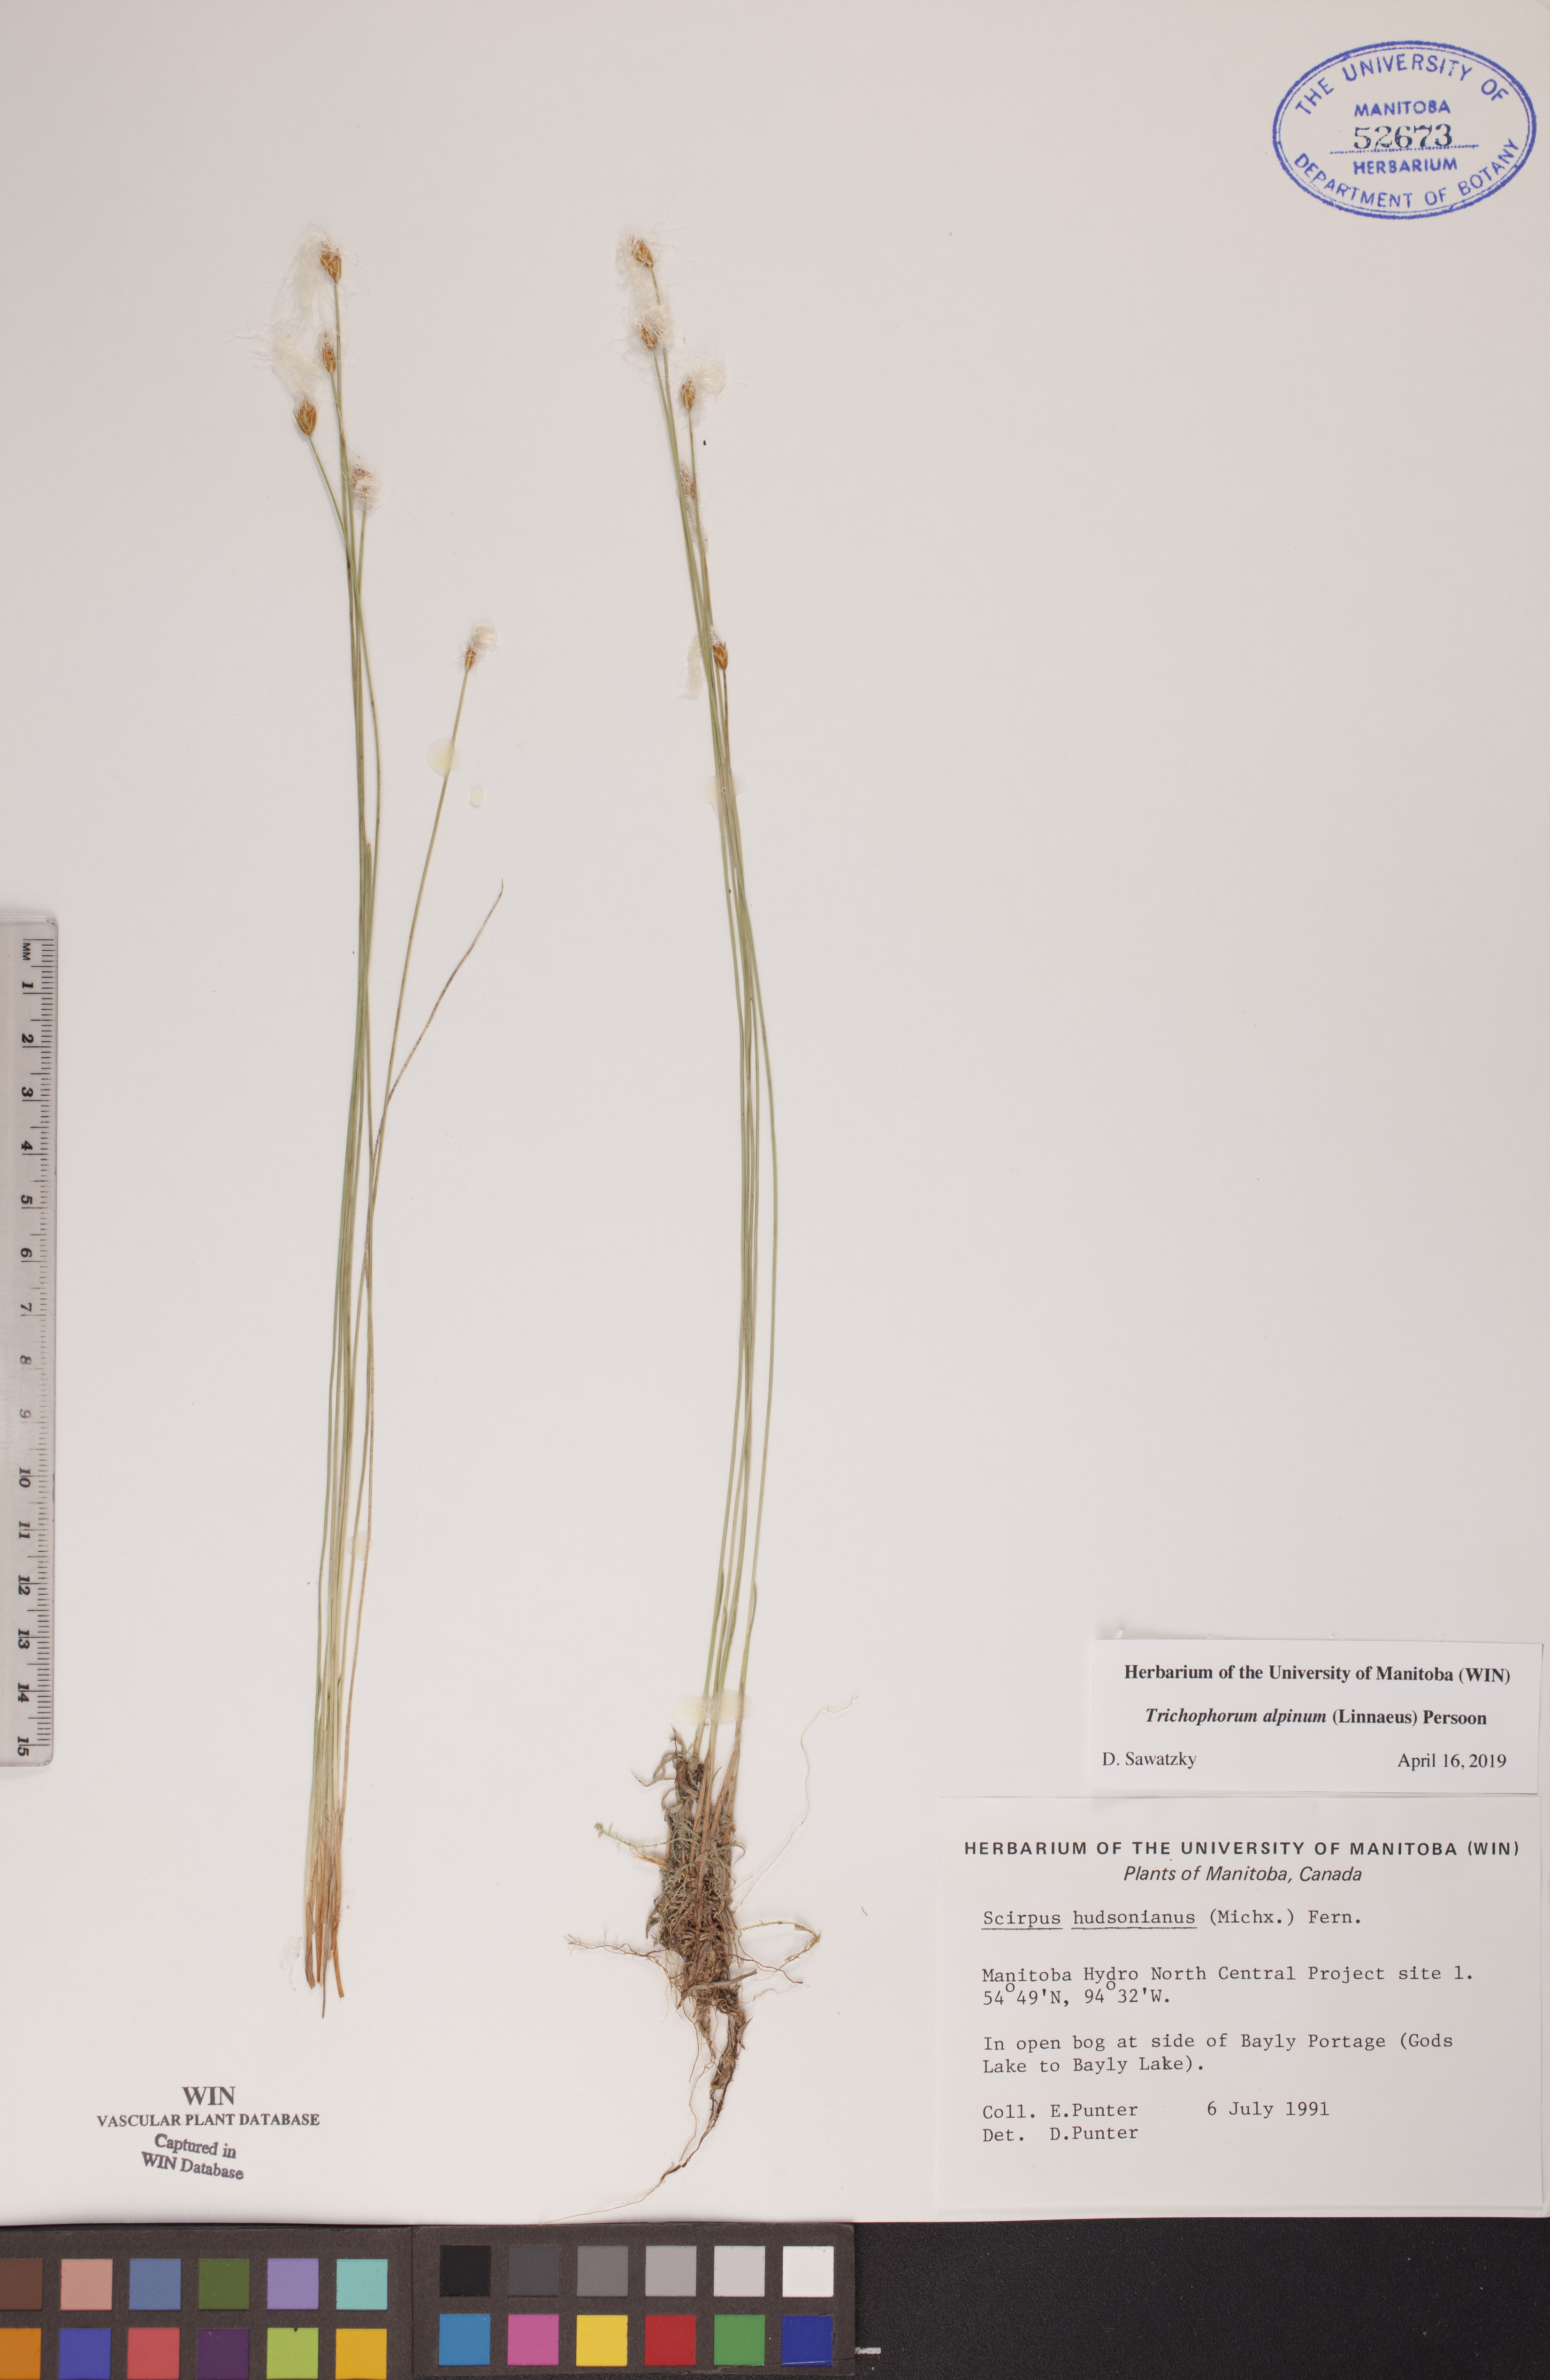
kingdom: Plantae
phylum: Tracheophyta
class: Liliopsida
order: Poales
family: Cyperaceae
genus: Trichophorum
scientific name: Trichophorum alpinum
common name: Alpine bulrush
